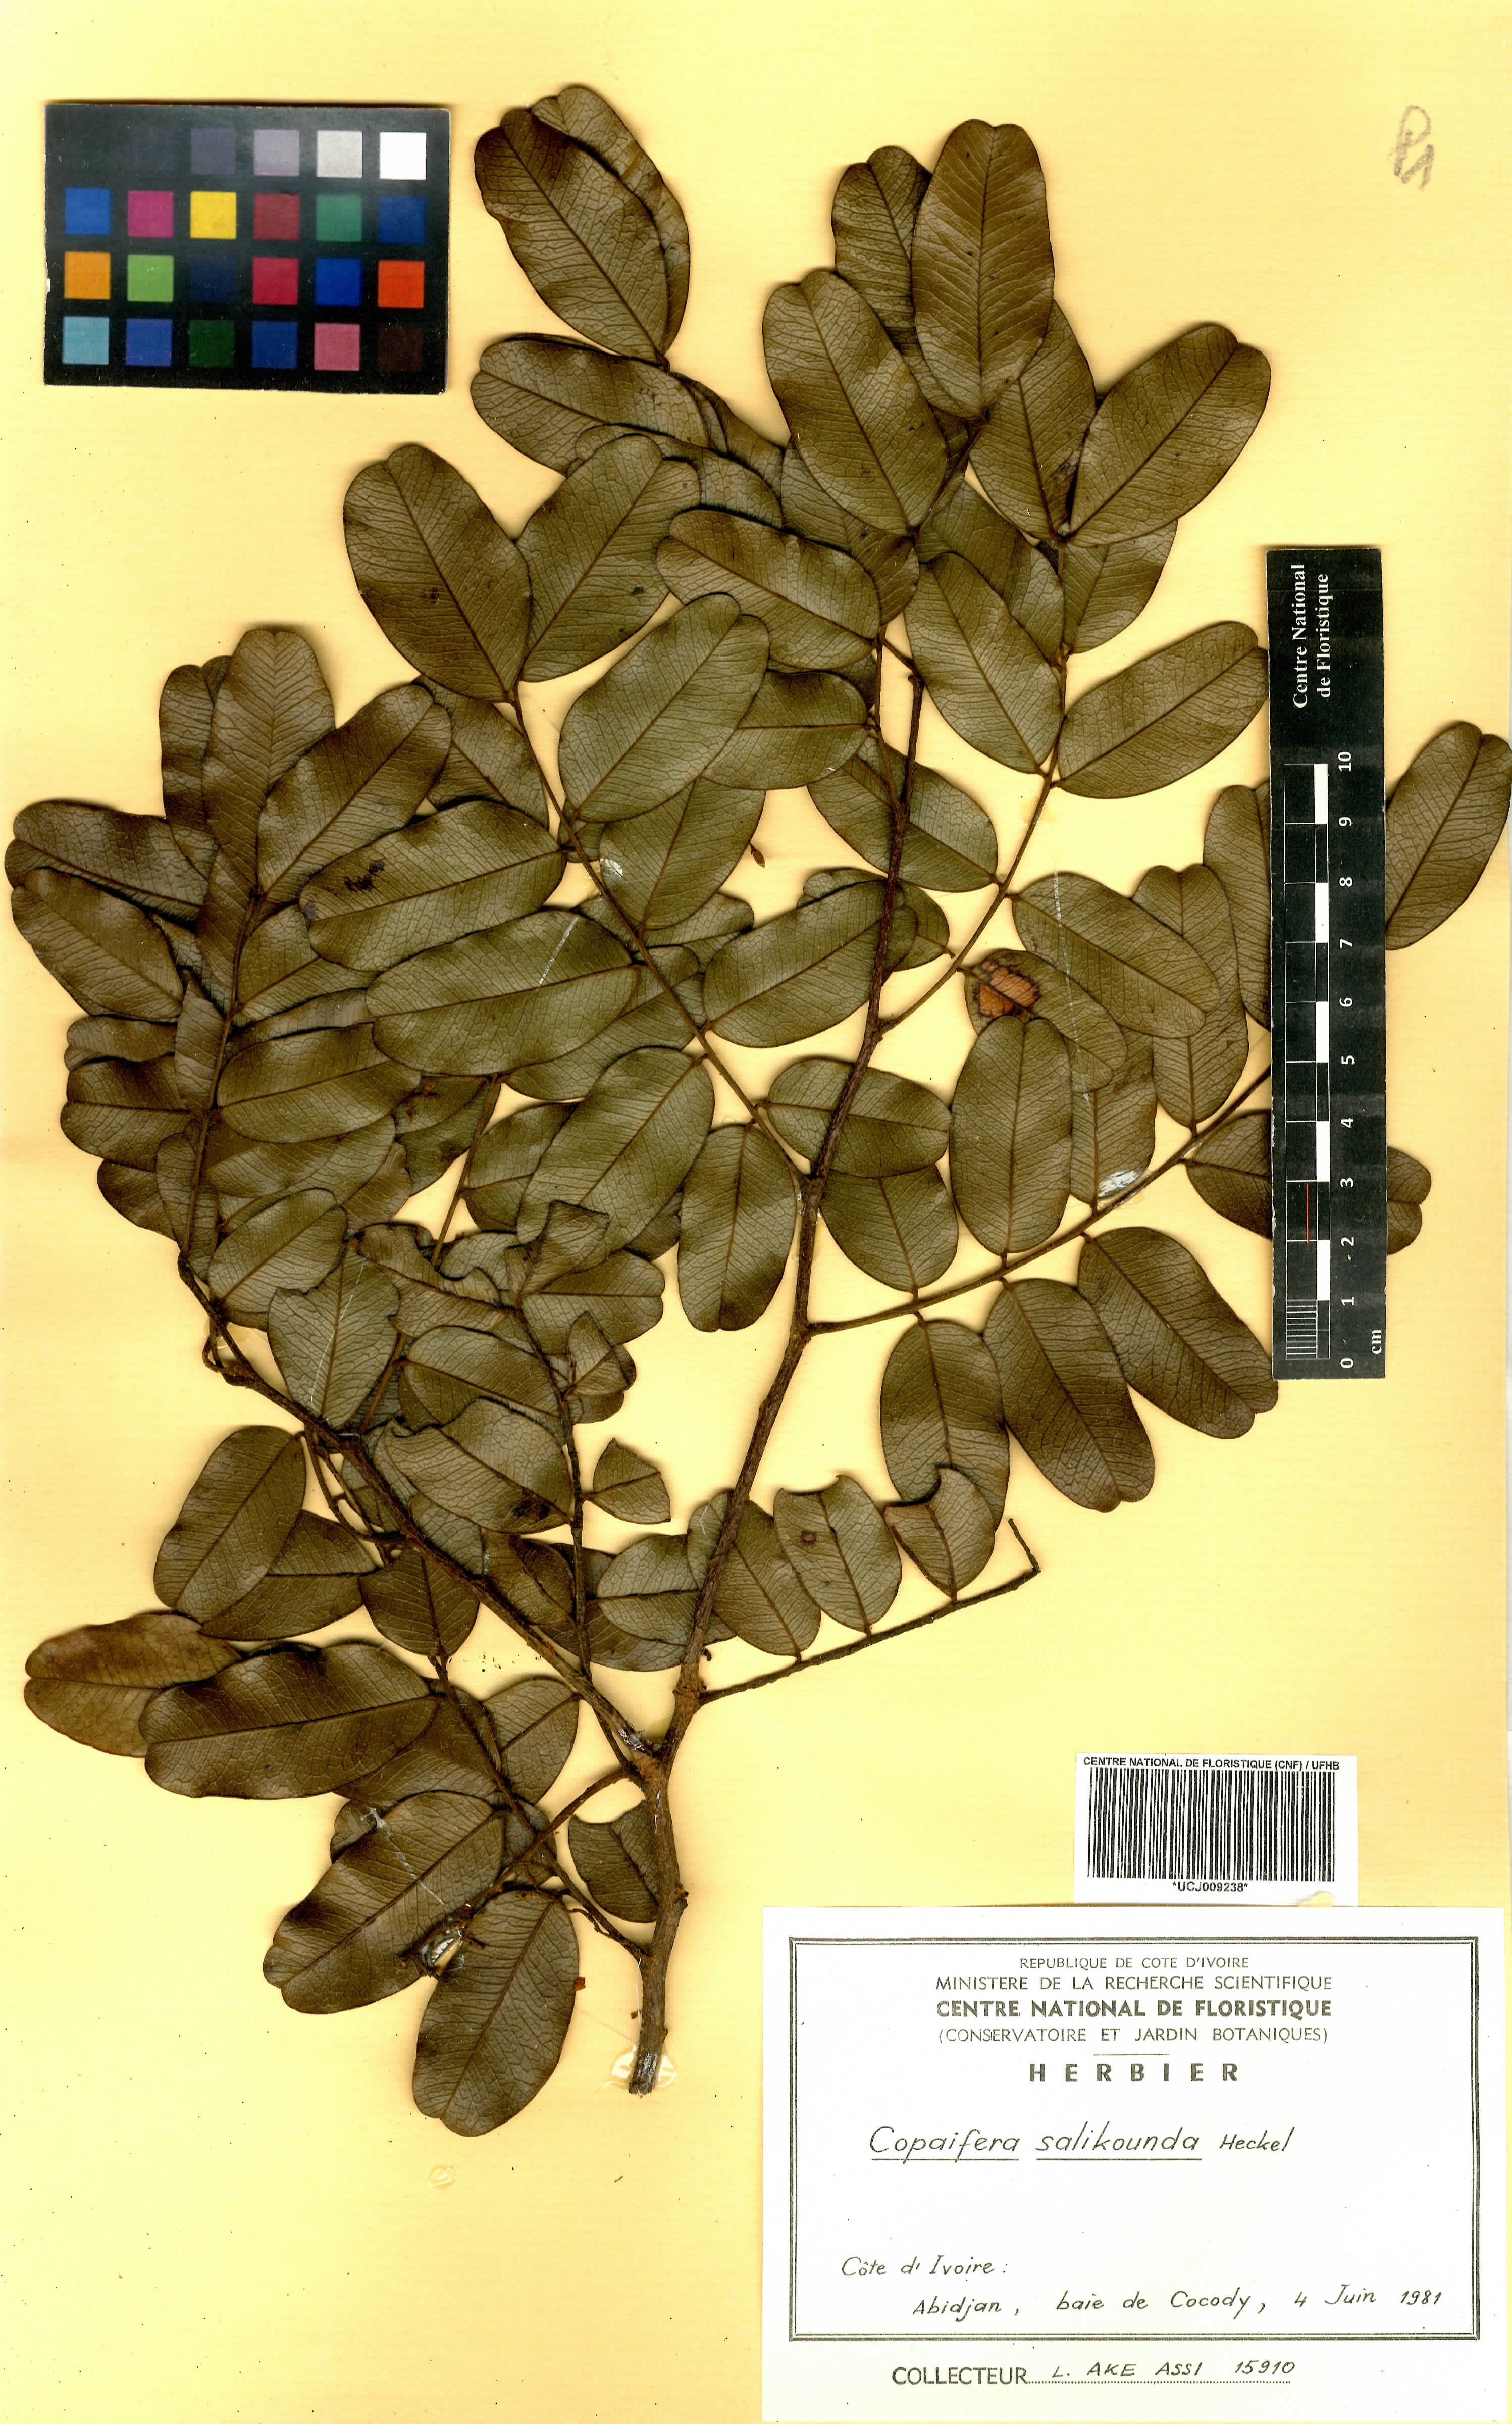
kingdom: Plantae
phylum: Tracheophyta
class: Magnoliopsida
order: Fabales
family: Fabaceae
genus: Copaifera
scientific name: Copaifera salikounda
